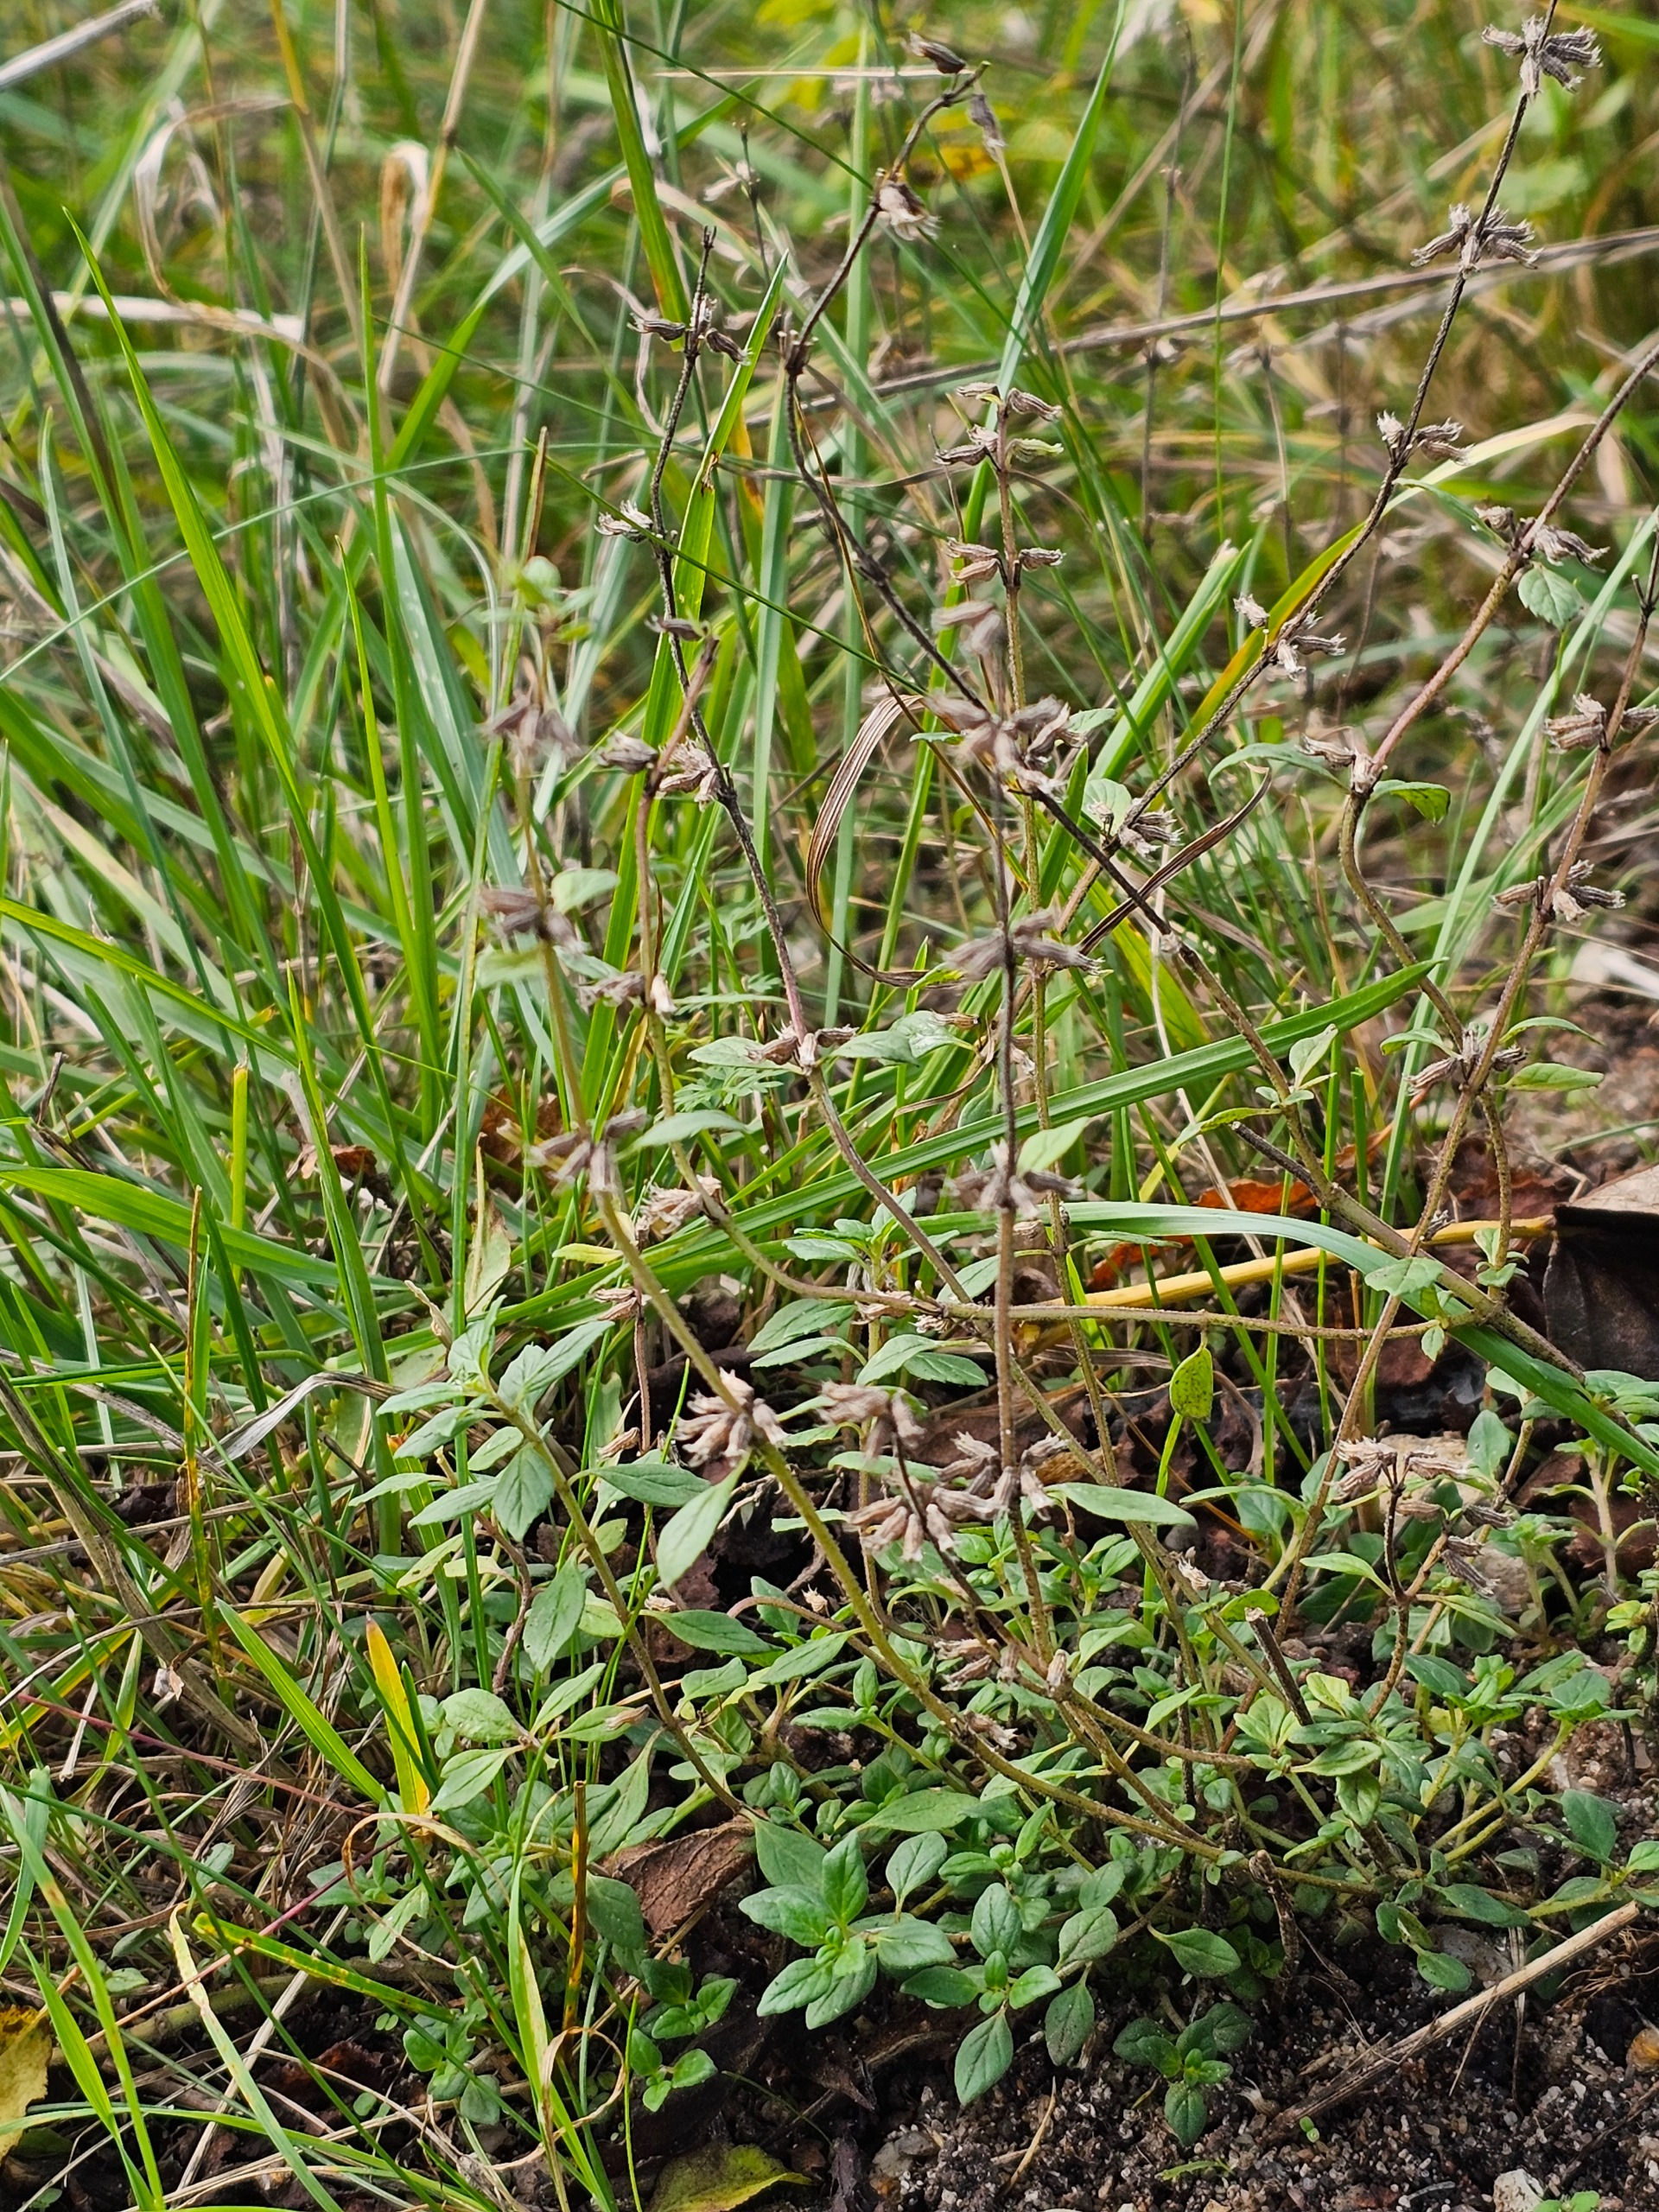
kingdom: Plantae
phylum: Tracheophyta
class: Magnoliopsida
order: Lamiales
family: Lamiaceae
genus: Clinopodium
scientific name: Clinopodium acinos
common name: Voldtimian
